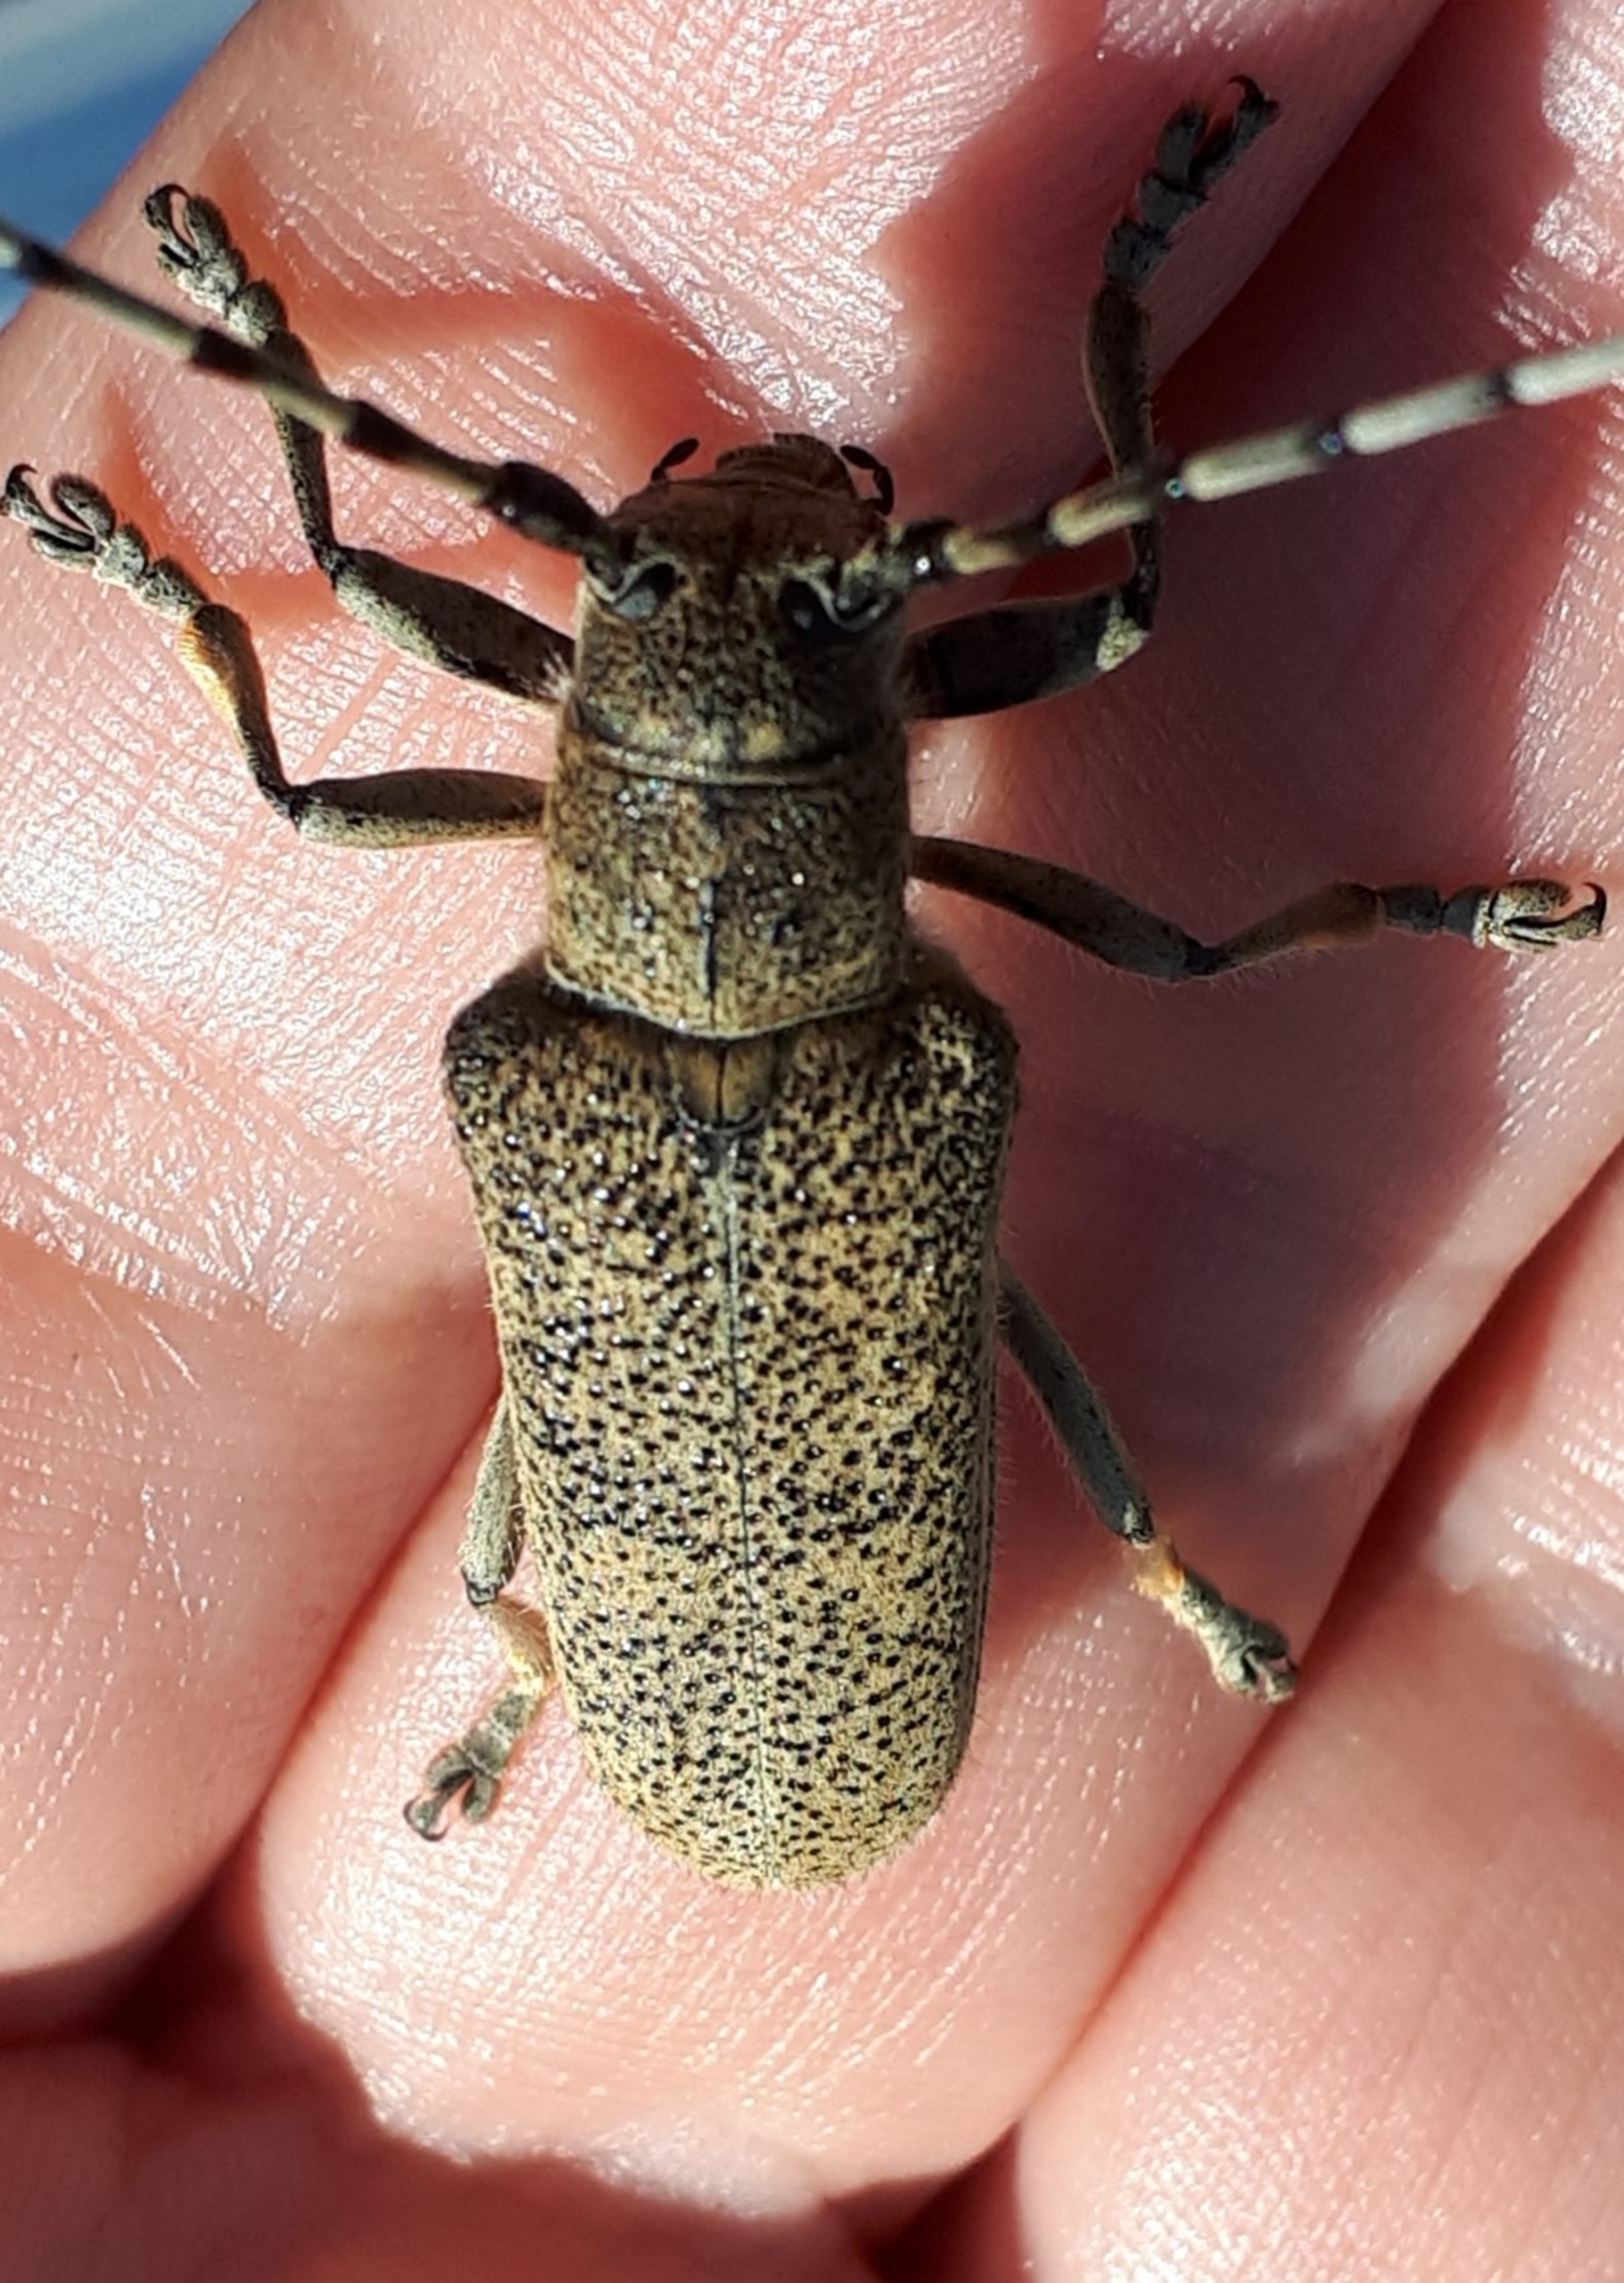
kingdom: Animalia
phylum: Arthropoda
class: Insecta
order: Coleoptera
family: Cerambycidae
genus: Saperda
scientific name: Saperda carcharias
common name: Poppelbuk
